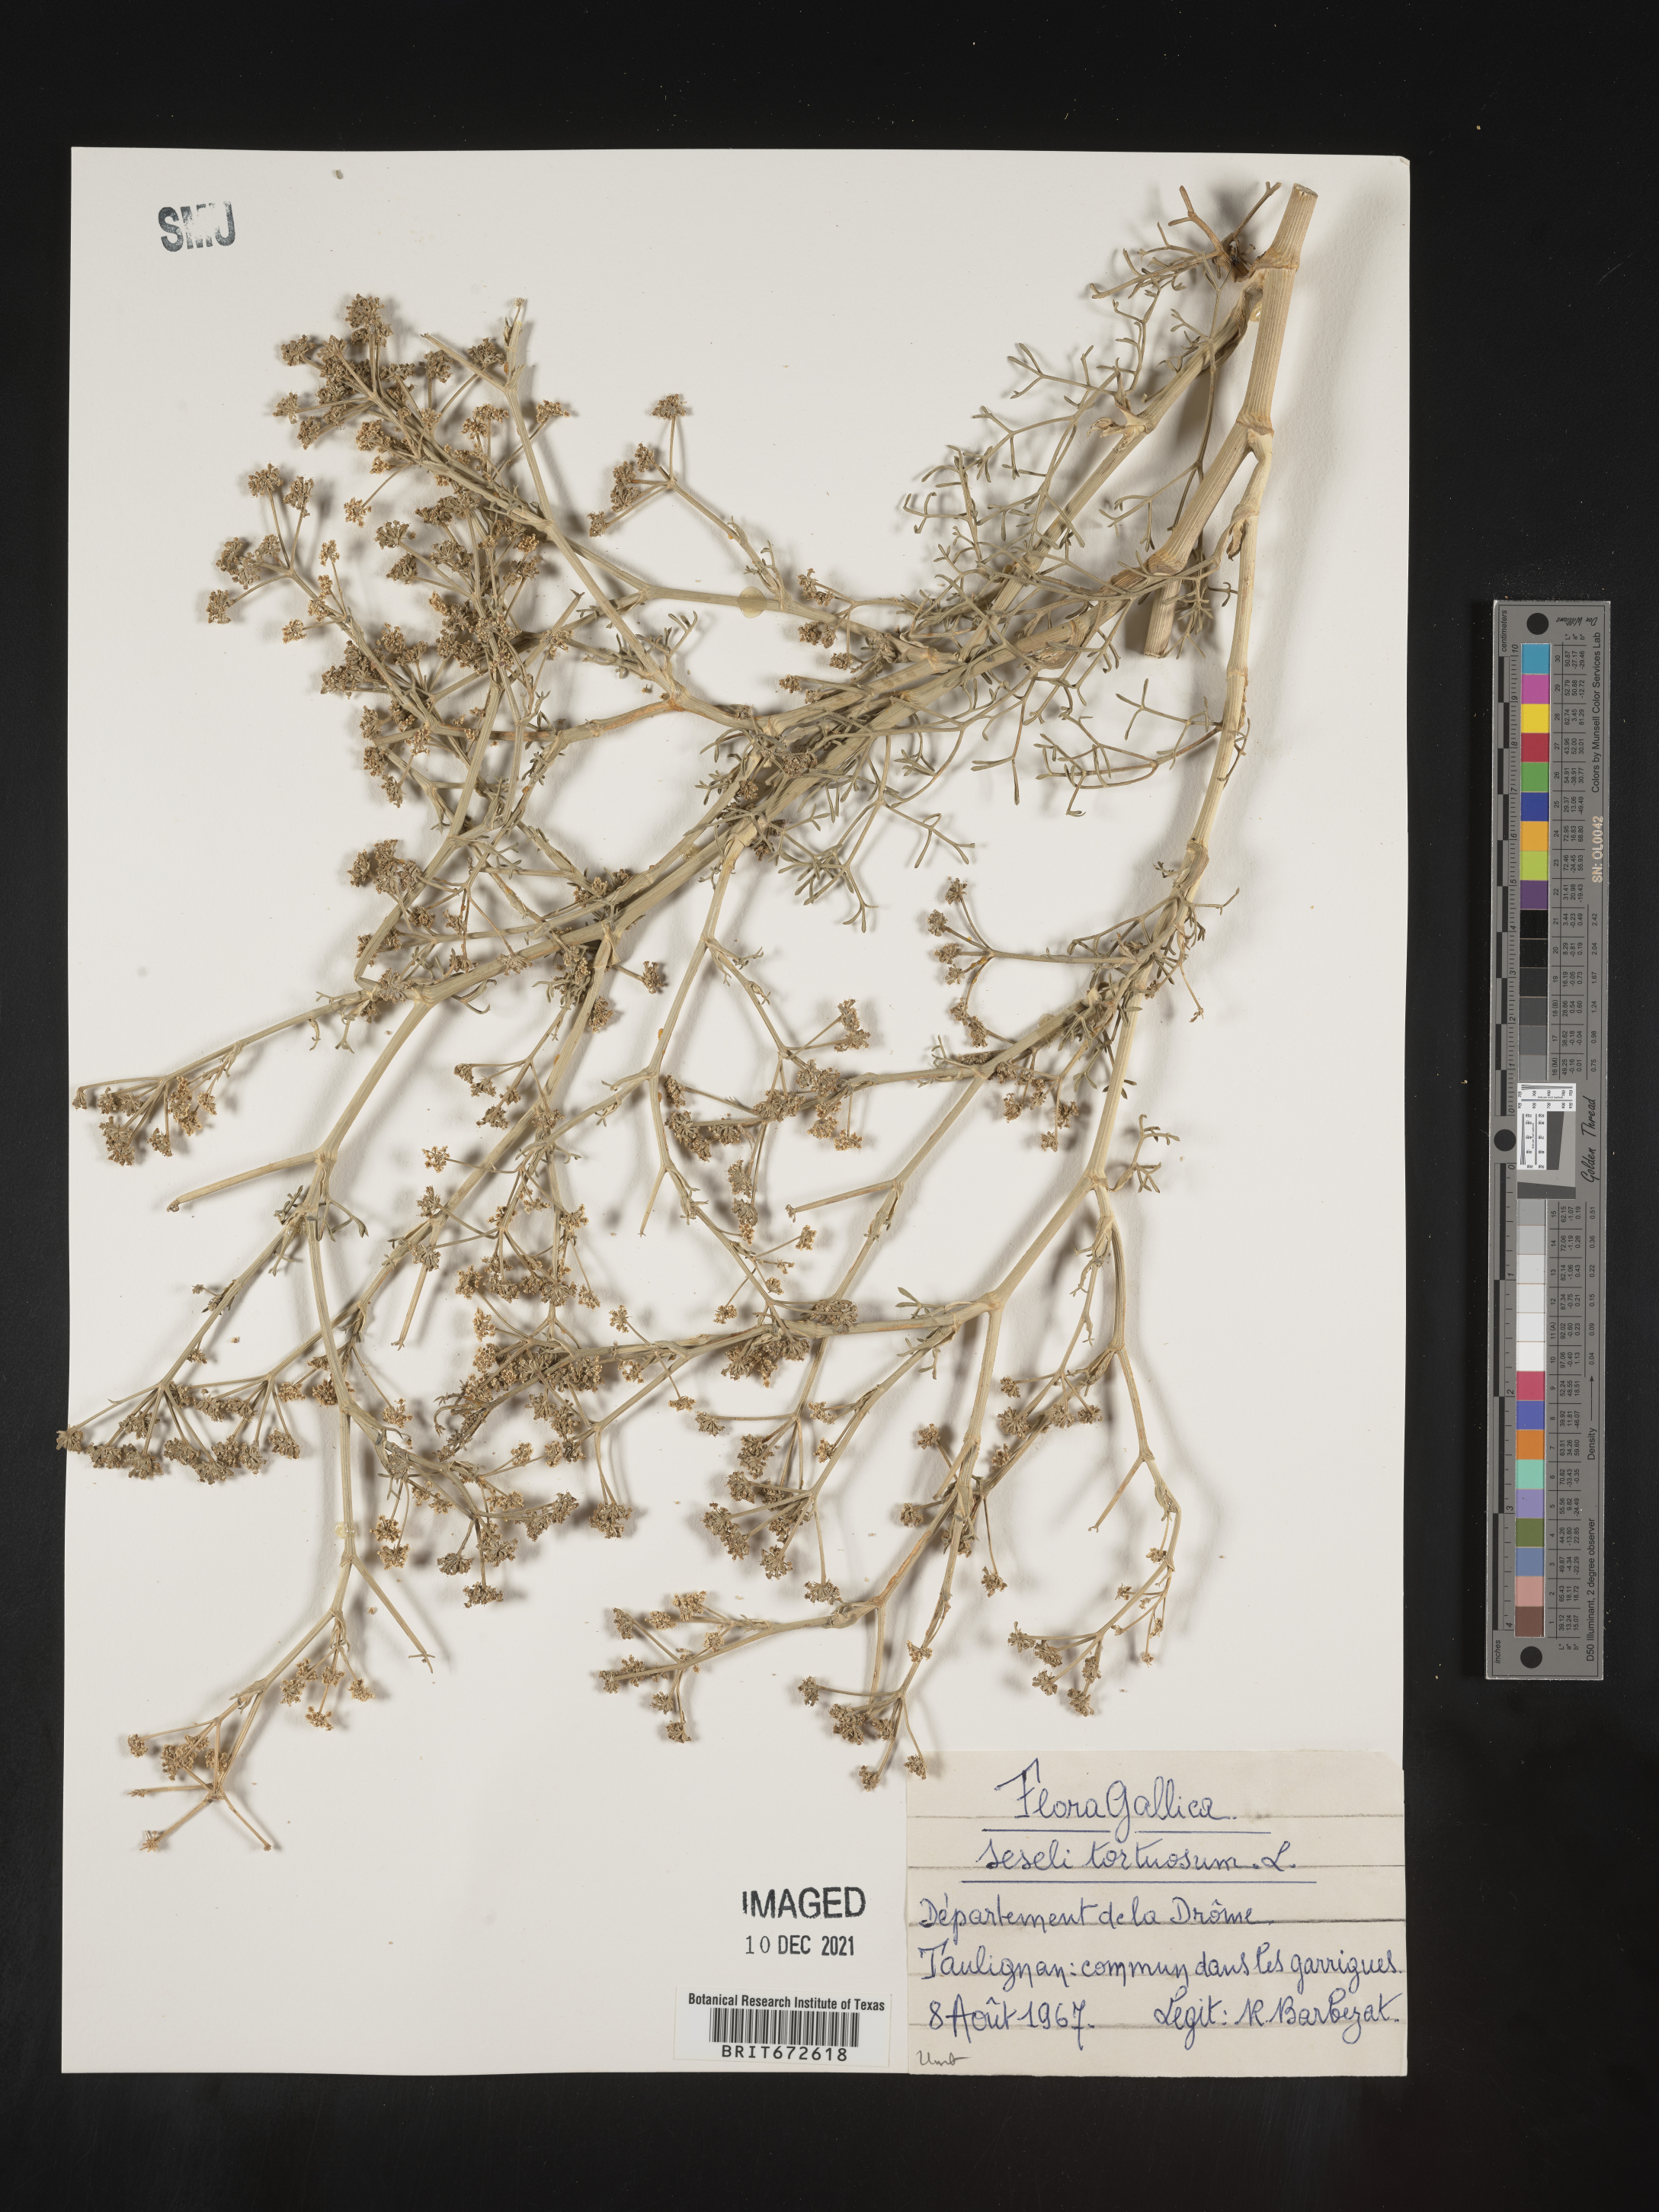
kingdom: Plantae
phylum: Tracheophyta
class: Magnoliopsida
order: Apiales
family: Apiaceae
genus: Seseli
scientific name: Seseli
